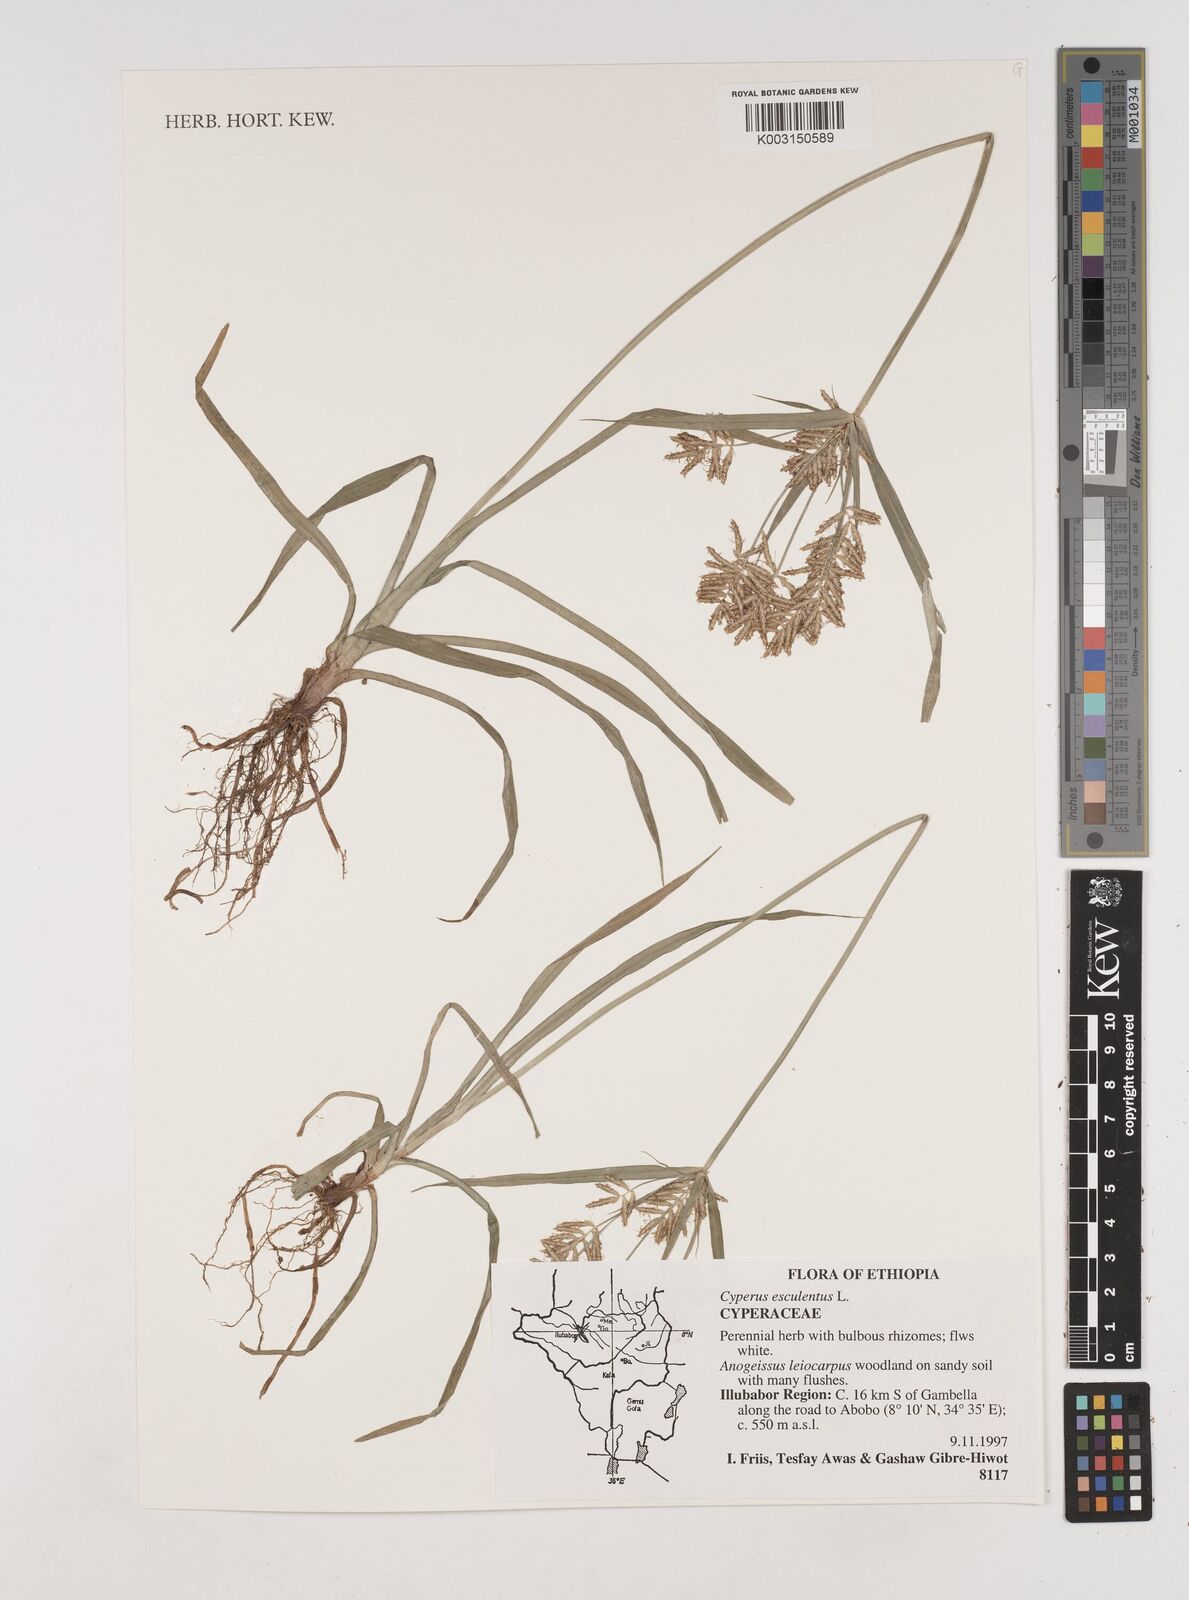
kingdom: Plantae
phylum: Tracheophyta
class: Liliopsida
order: Poales
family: Cyperaceae
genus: Cyperus
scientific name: Cyperus esculentus
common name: Yellow nutsedge
